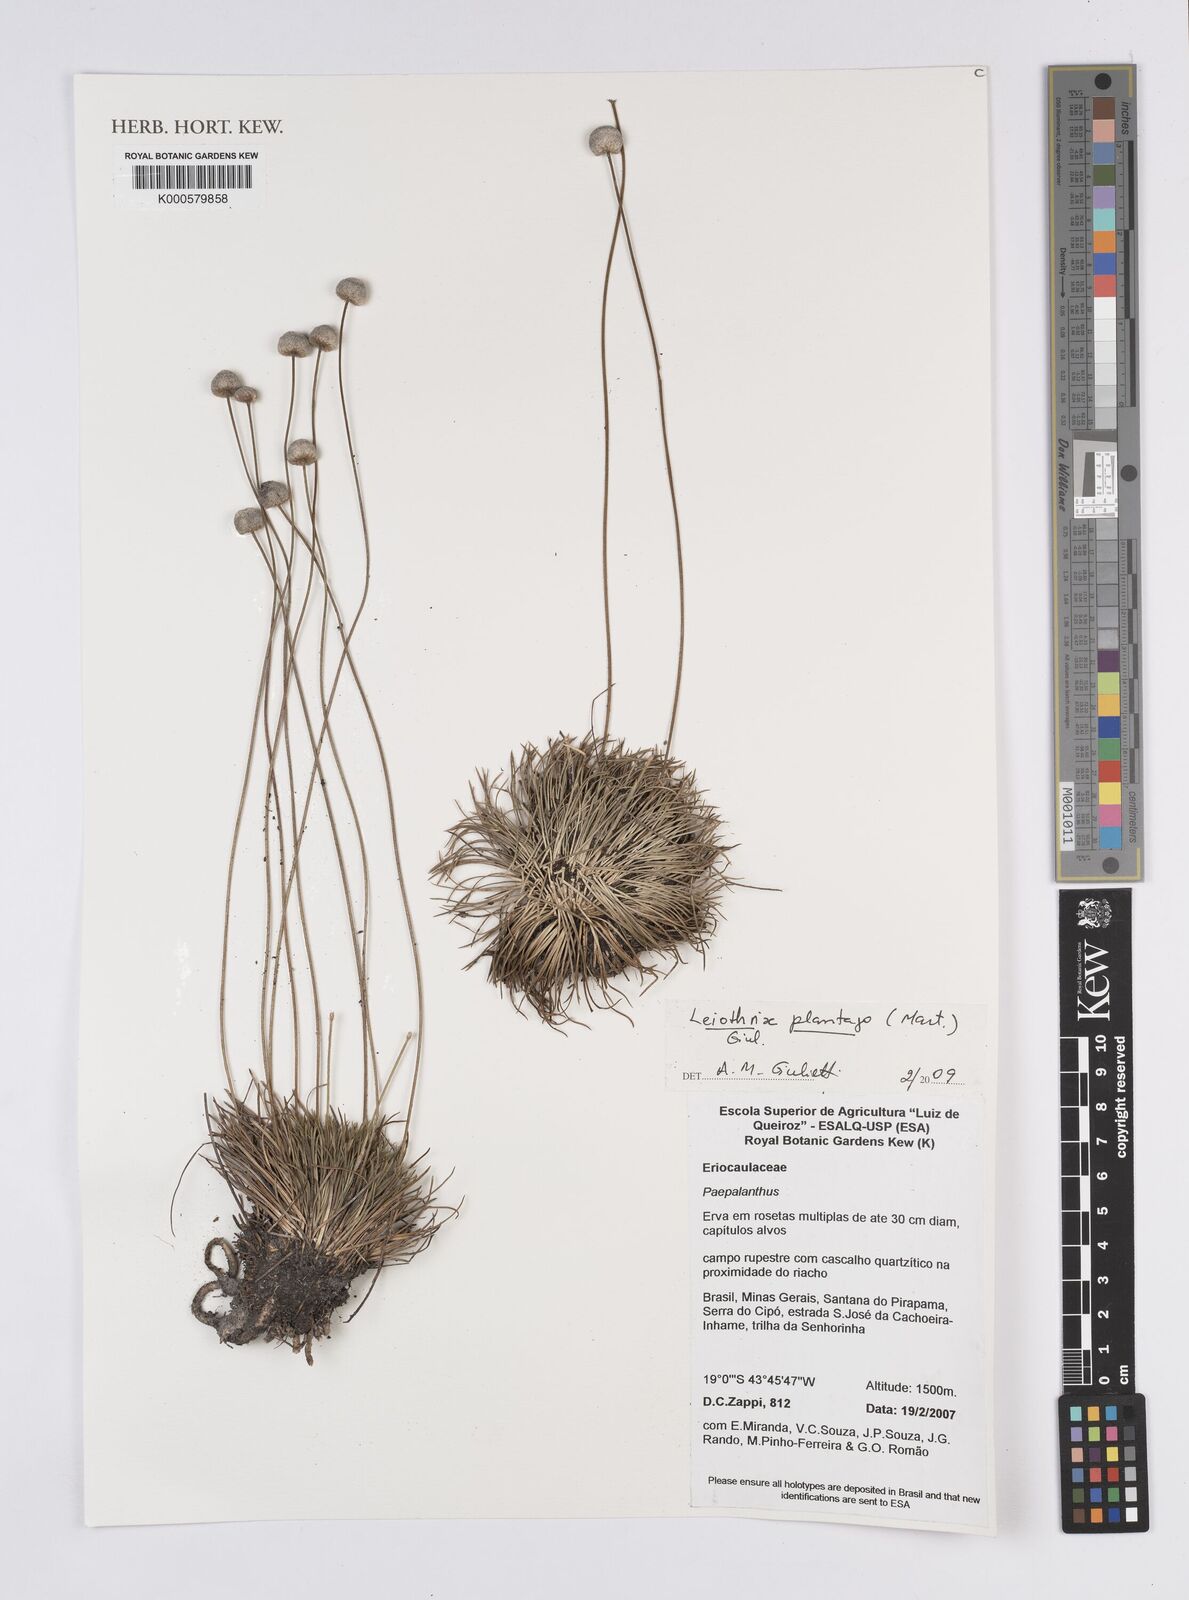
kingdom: Plantae
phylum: Tracheophyta
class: Liliopsida
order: Poales
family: Eriocaulaceae
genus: Leiothrix
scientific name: Leiothrix plantago
